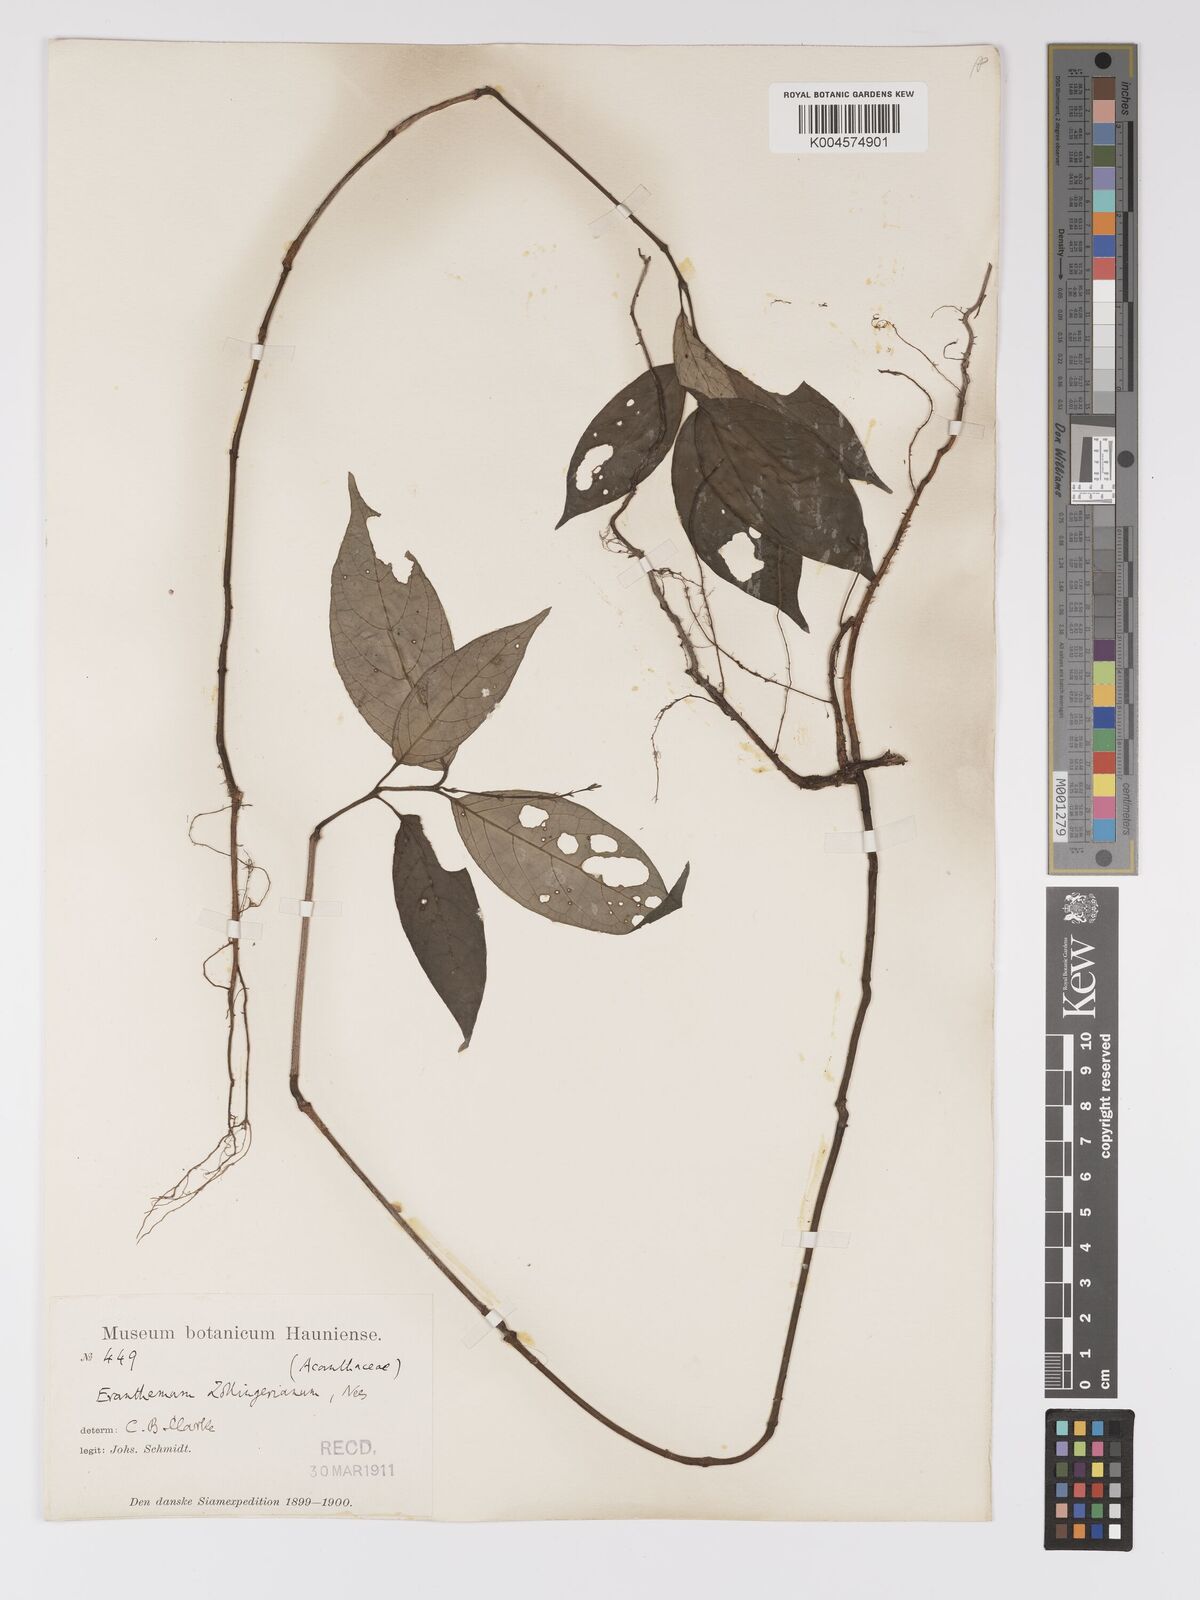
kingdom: Plantae
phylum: Tracheophyta
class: Magnoliopsida
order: Lamiales
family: Acanthaceae
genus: Pseuderanthemum
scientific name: Pseuderanthemum diversifolium
